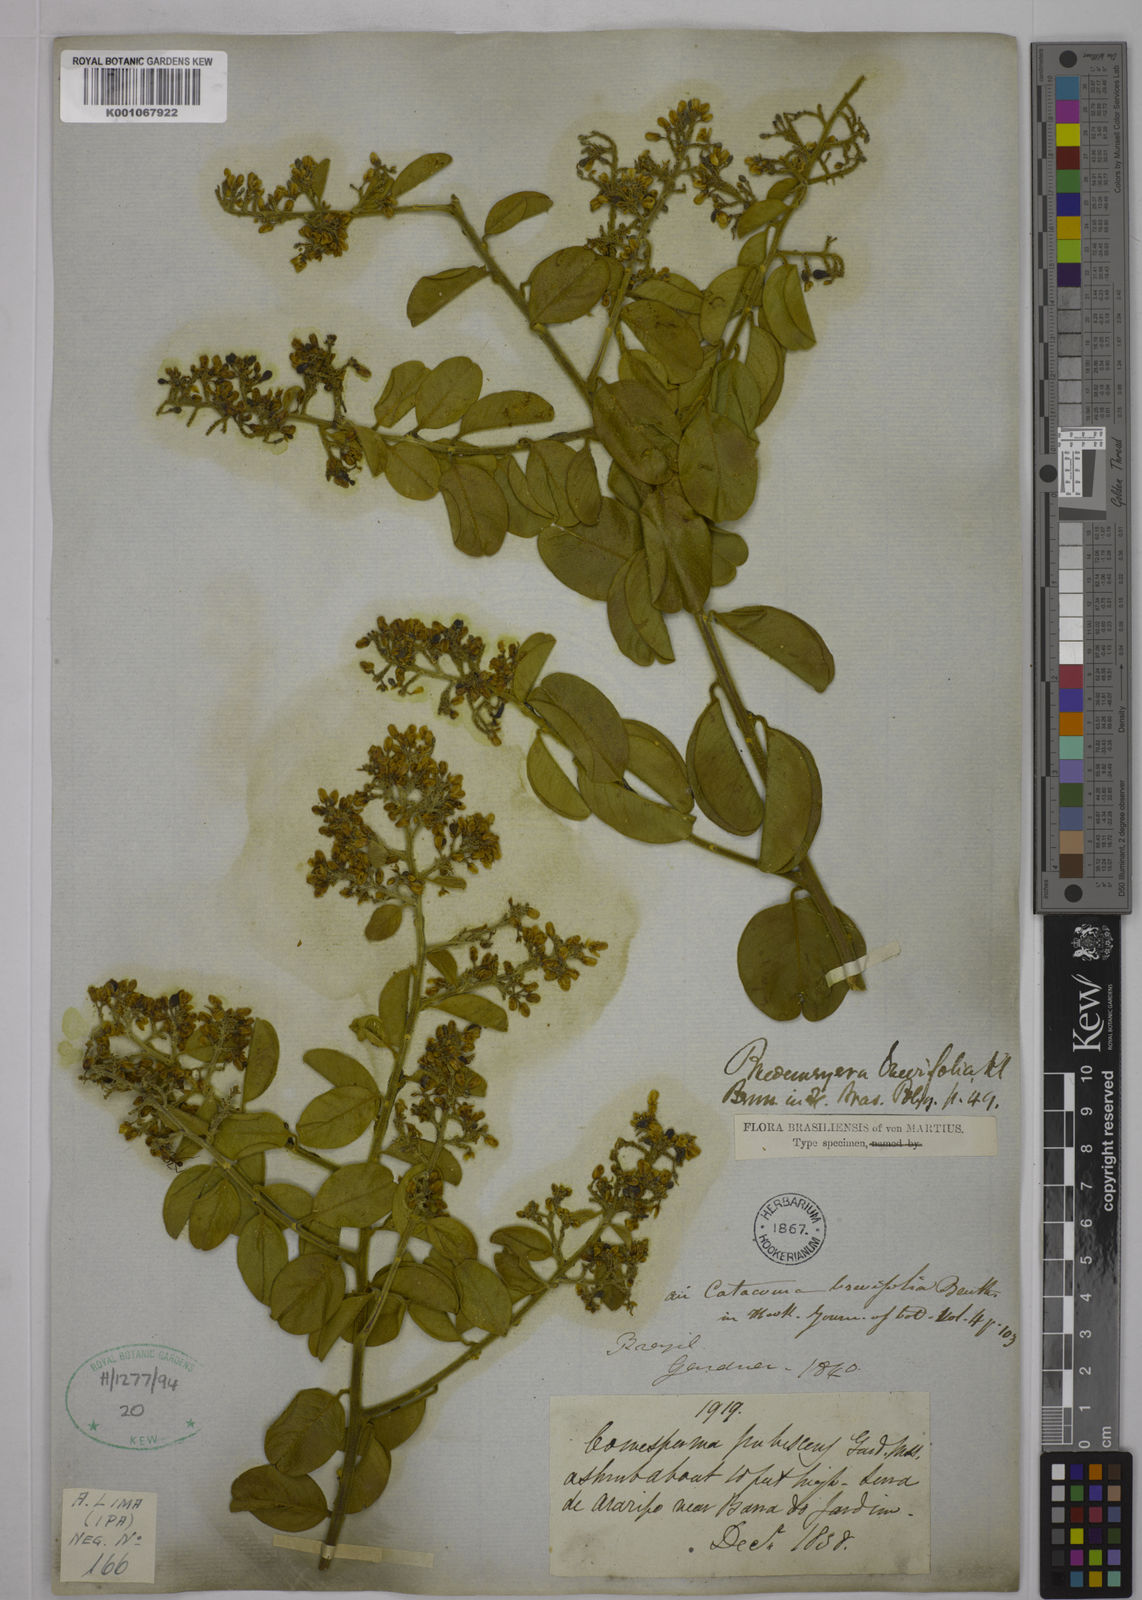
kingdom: Plantae
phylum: Tracheophyta
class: Magnoliopsida
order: Fabales
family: Polygalaceae
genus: Bredemeyera
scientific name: Bredemeyera brevifolia
